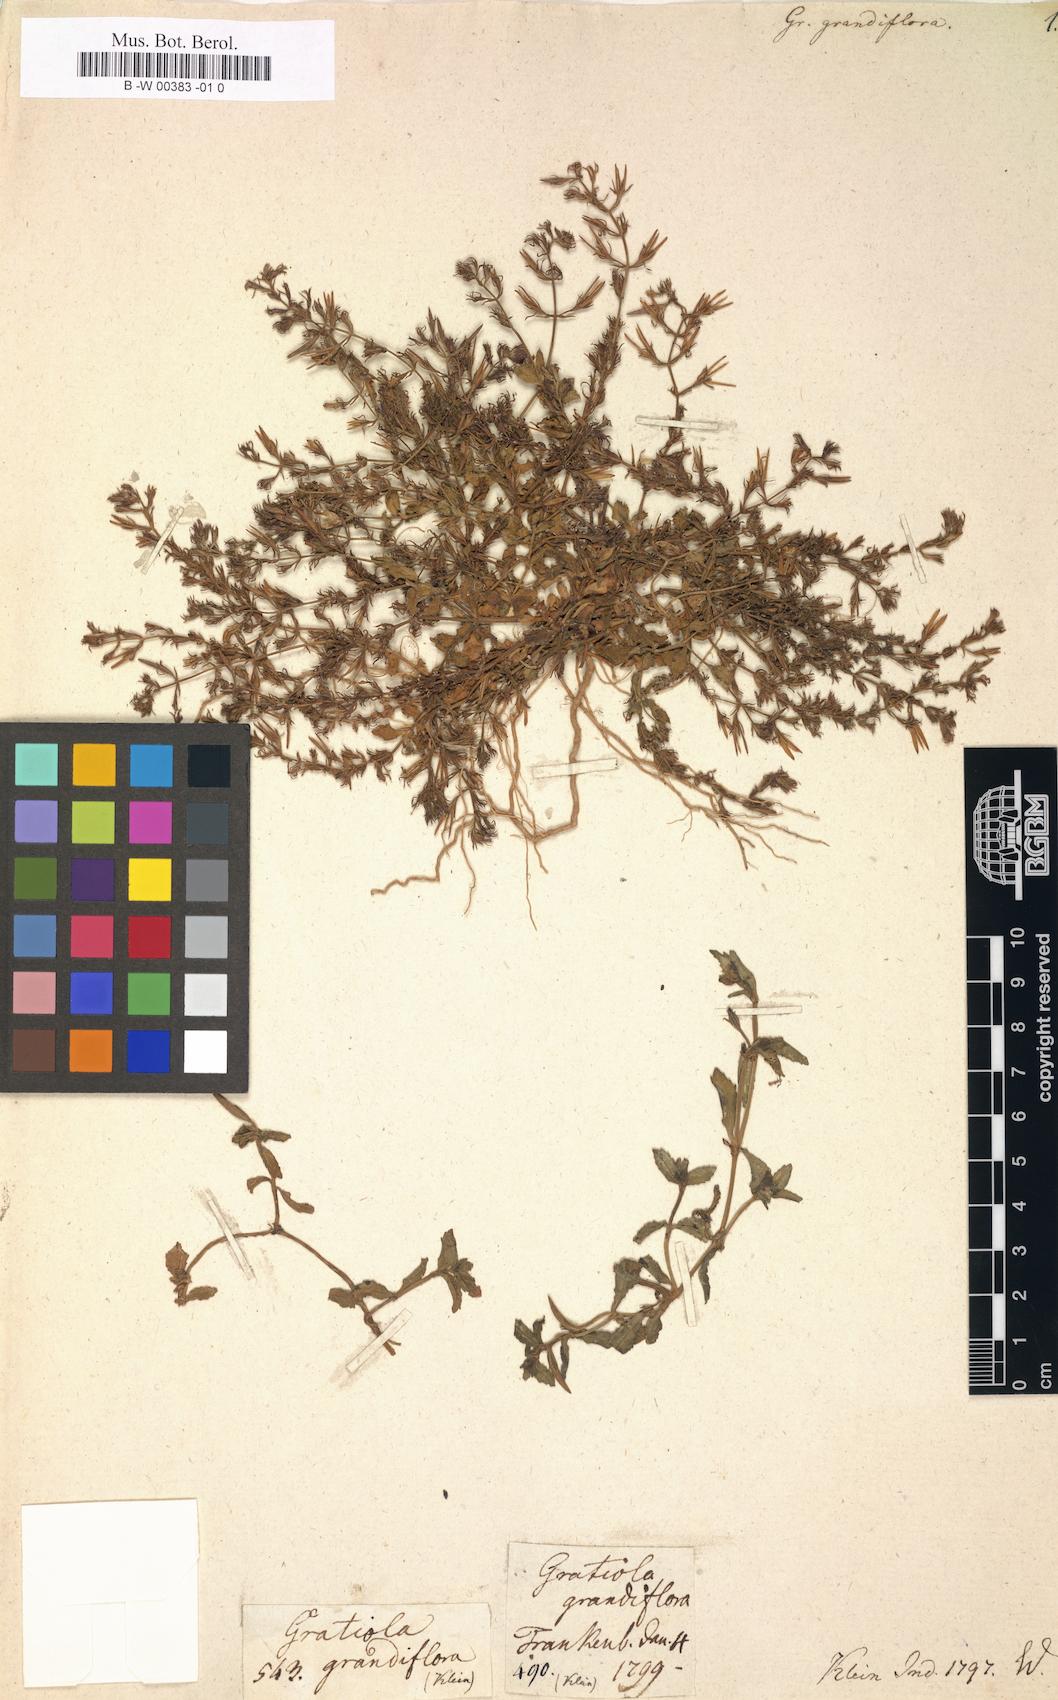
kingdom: Plantae
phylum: Tracheophyta
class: Magnoliopsida
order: Lamiales
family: Linderniaceae
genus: Bonnaya
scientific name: Bonnaya ciliata
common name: Hairy slitwort
